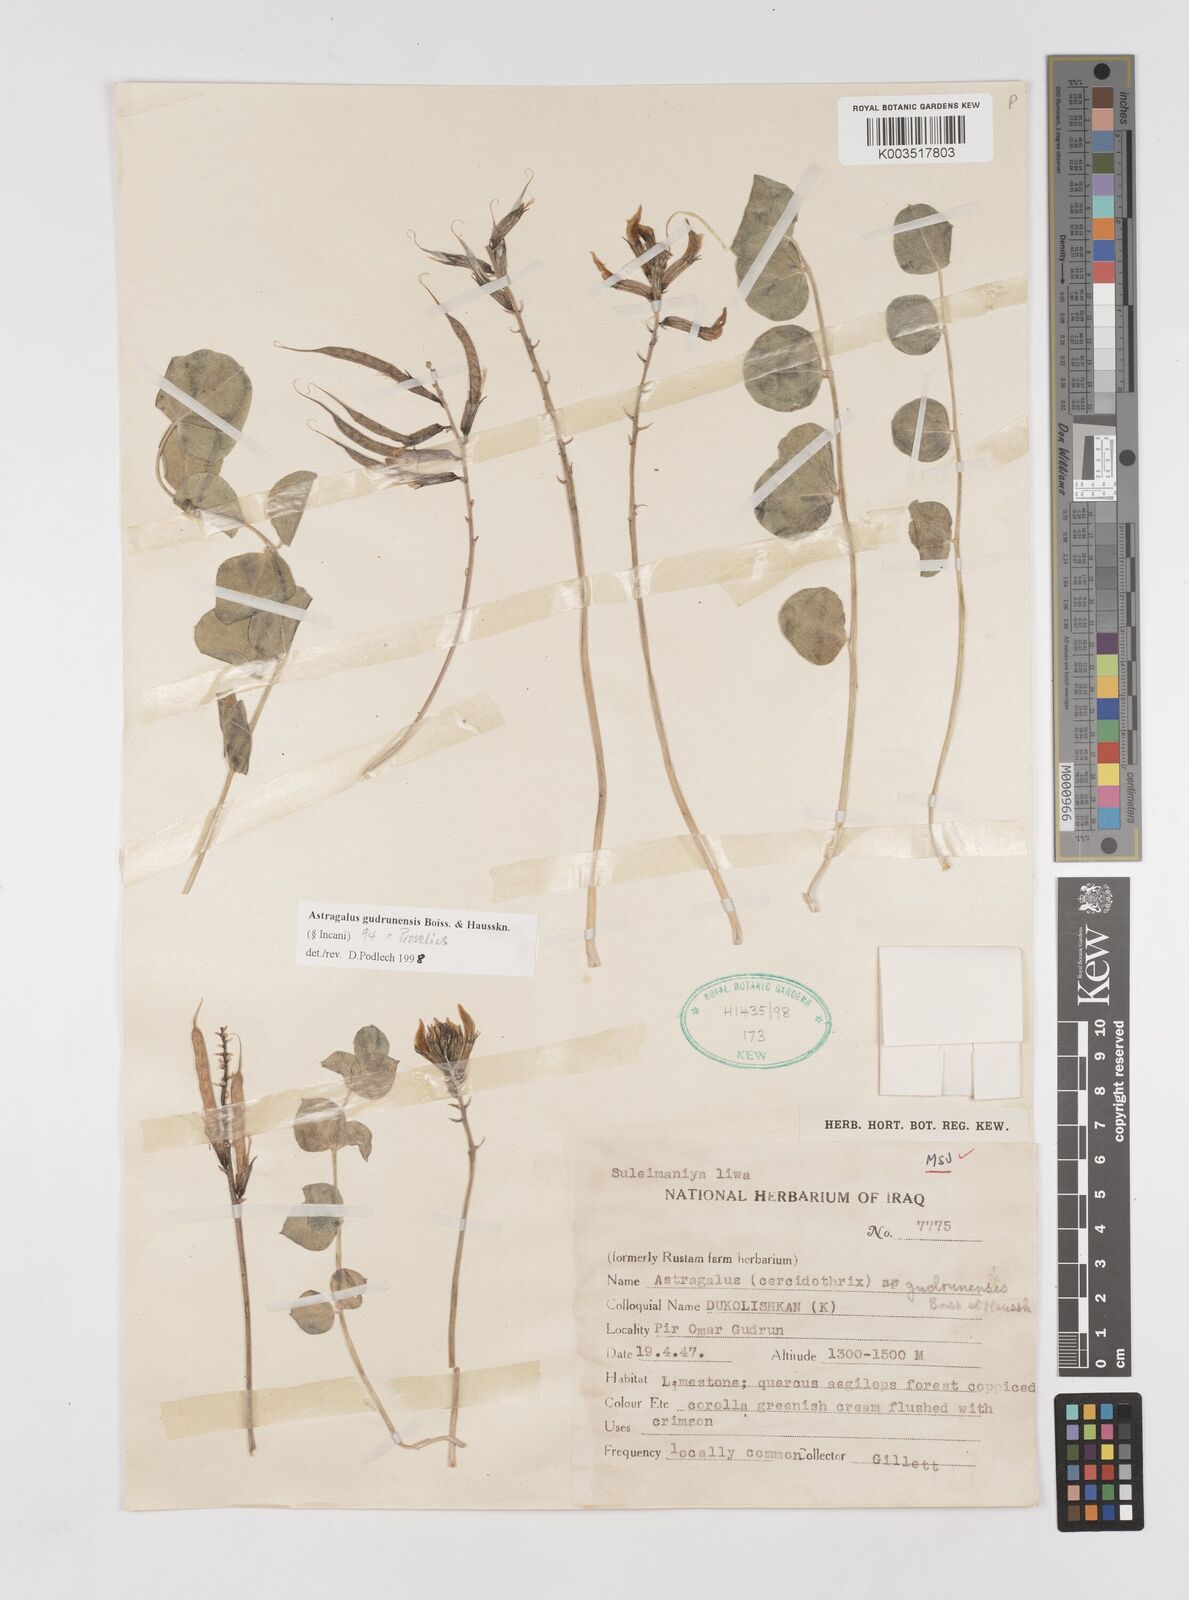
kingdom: Plantae
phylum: Tracheophyta
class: Magnoliopsida
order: Fabales
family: Fabaceae
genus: Astragalus
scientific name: Astragalus gudrunensis
